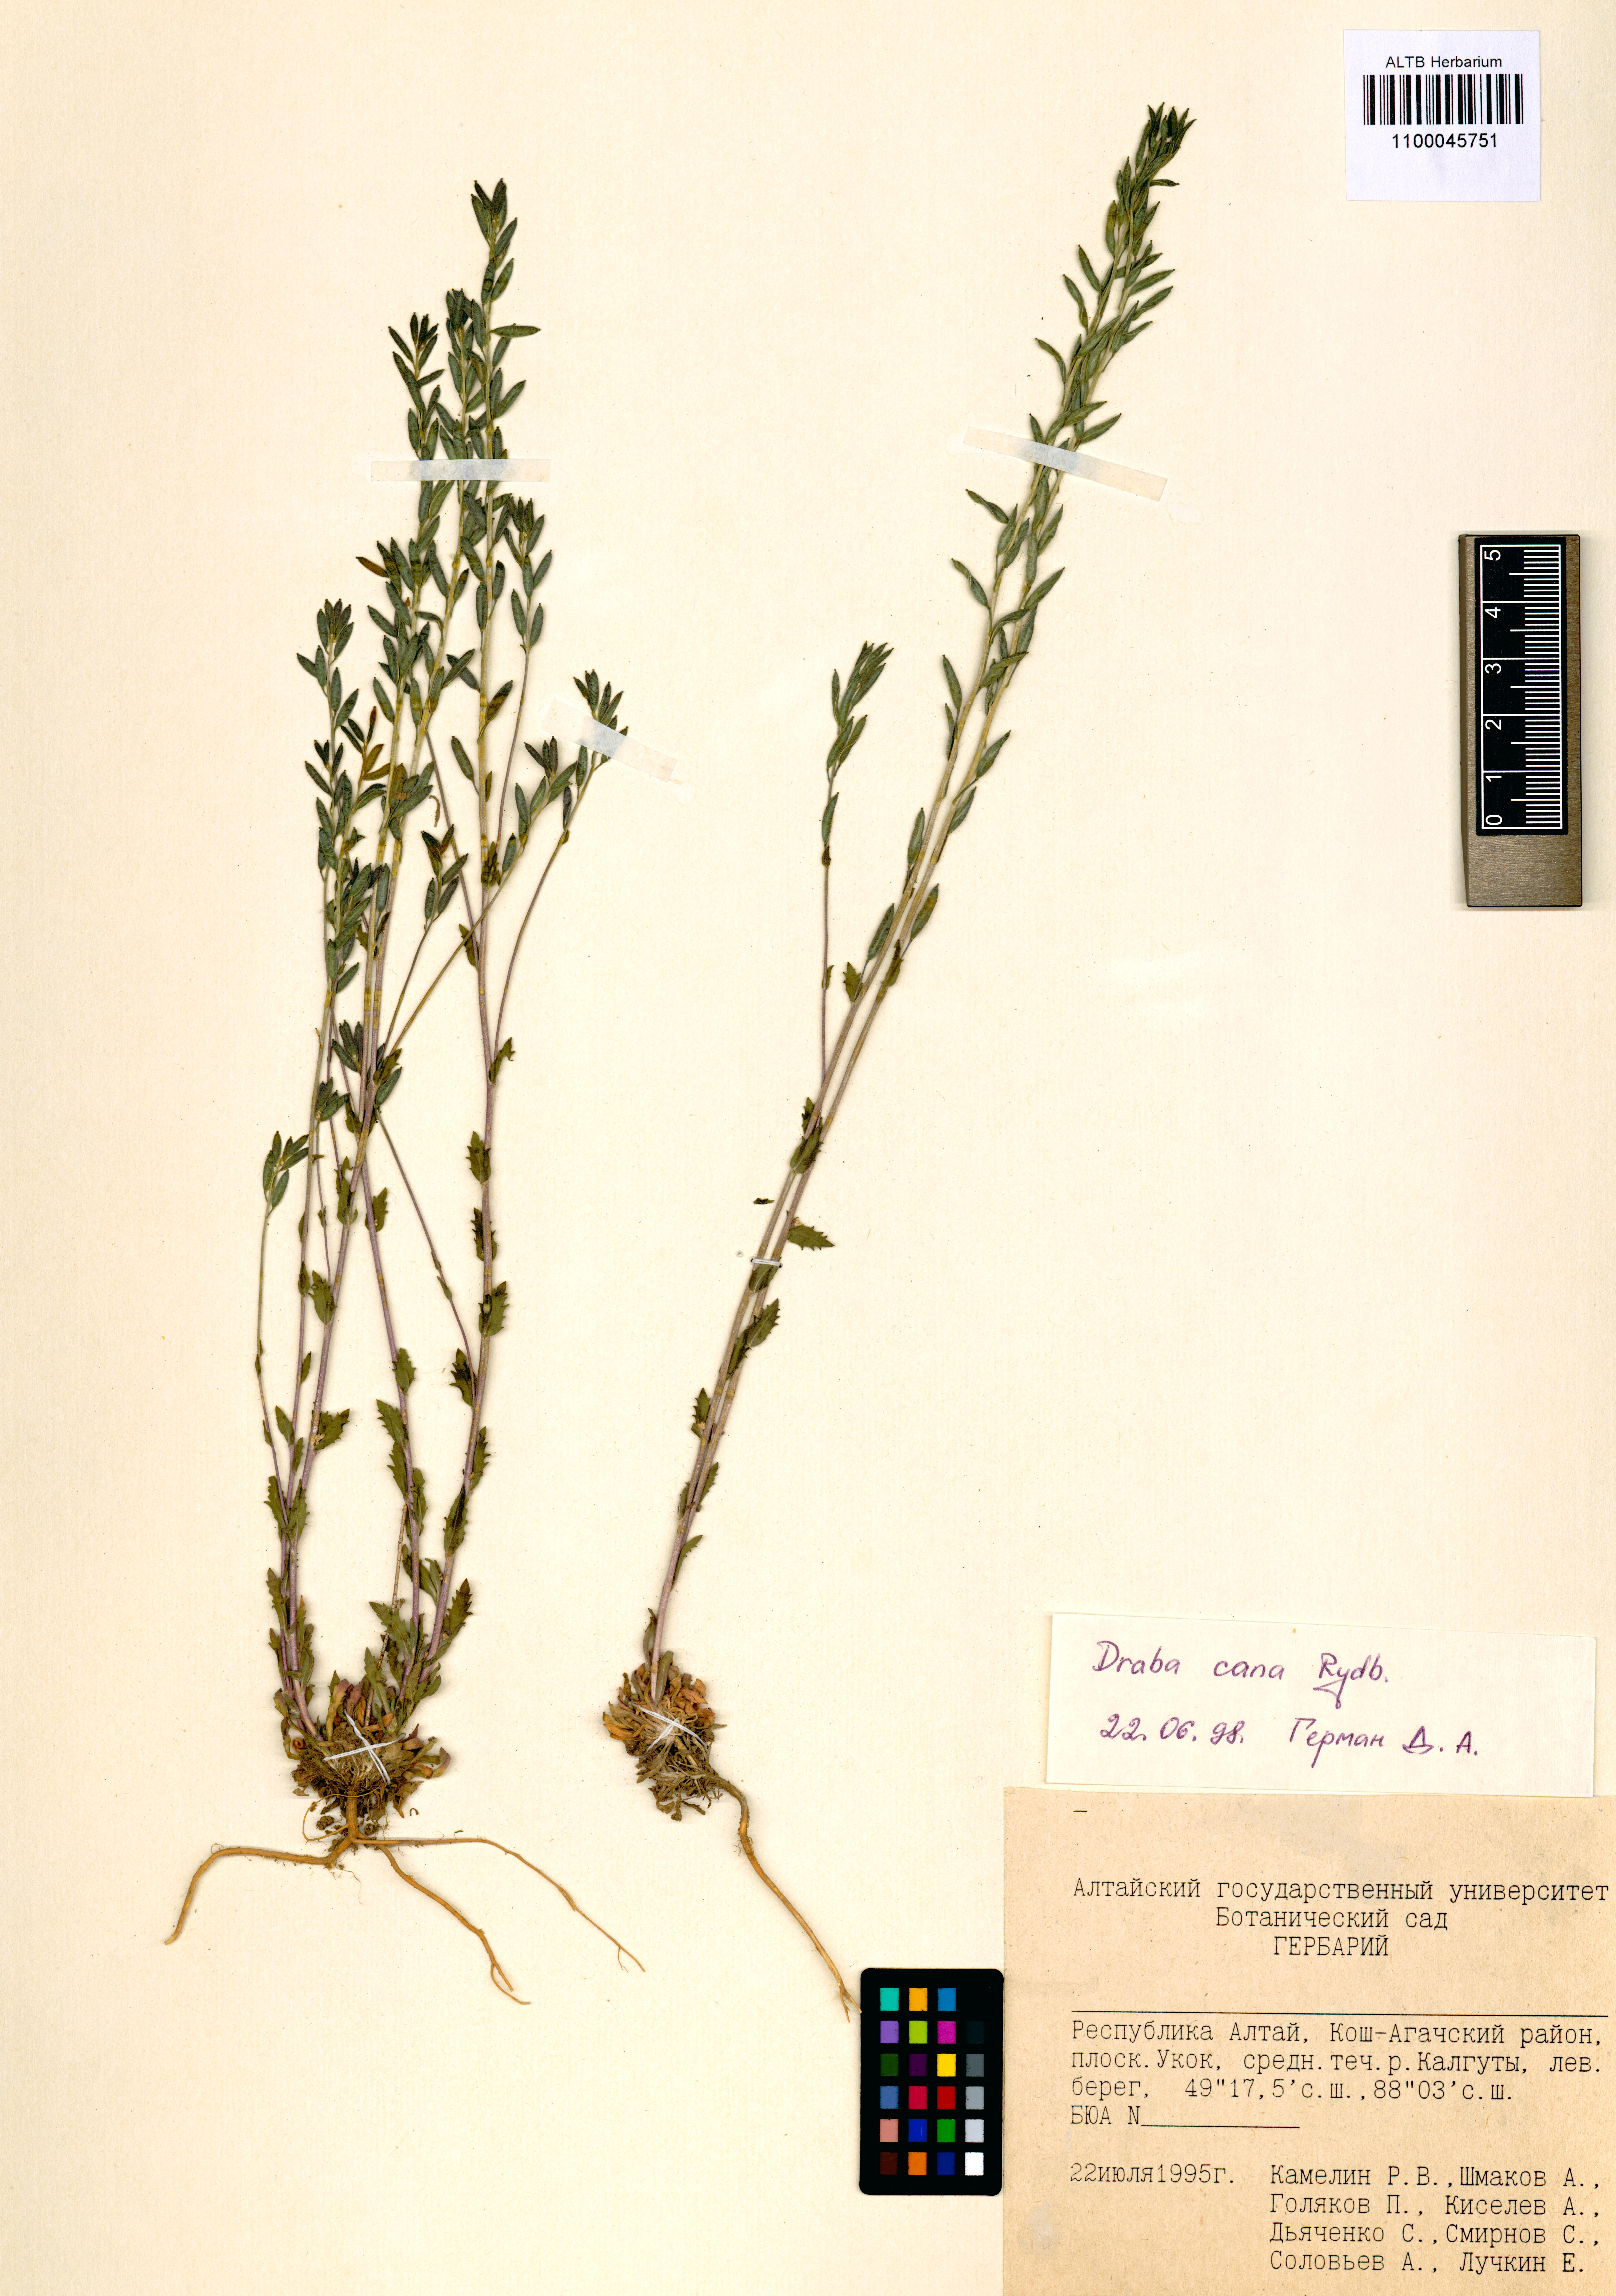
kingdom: Plantae
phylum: Tracheophyta
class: Magnoliopsida
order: Brassicales
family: Brassicaceae
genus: Draba
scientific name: Draba cana
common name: Hoary draba
